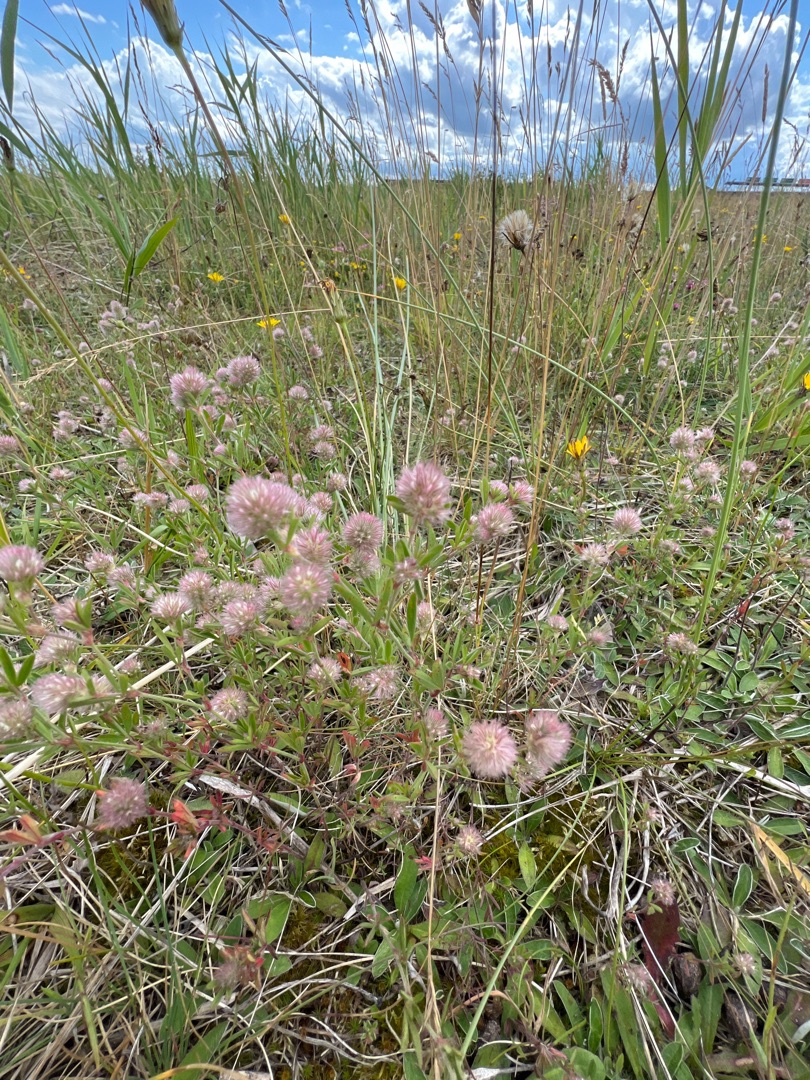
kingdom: Plantae
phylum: Tracheophyta
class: Magnoliopsida
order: Fabales
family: Fabaceae
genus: Trifolium
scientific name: Trifolium arvense
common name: Hare-kløver
